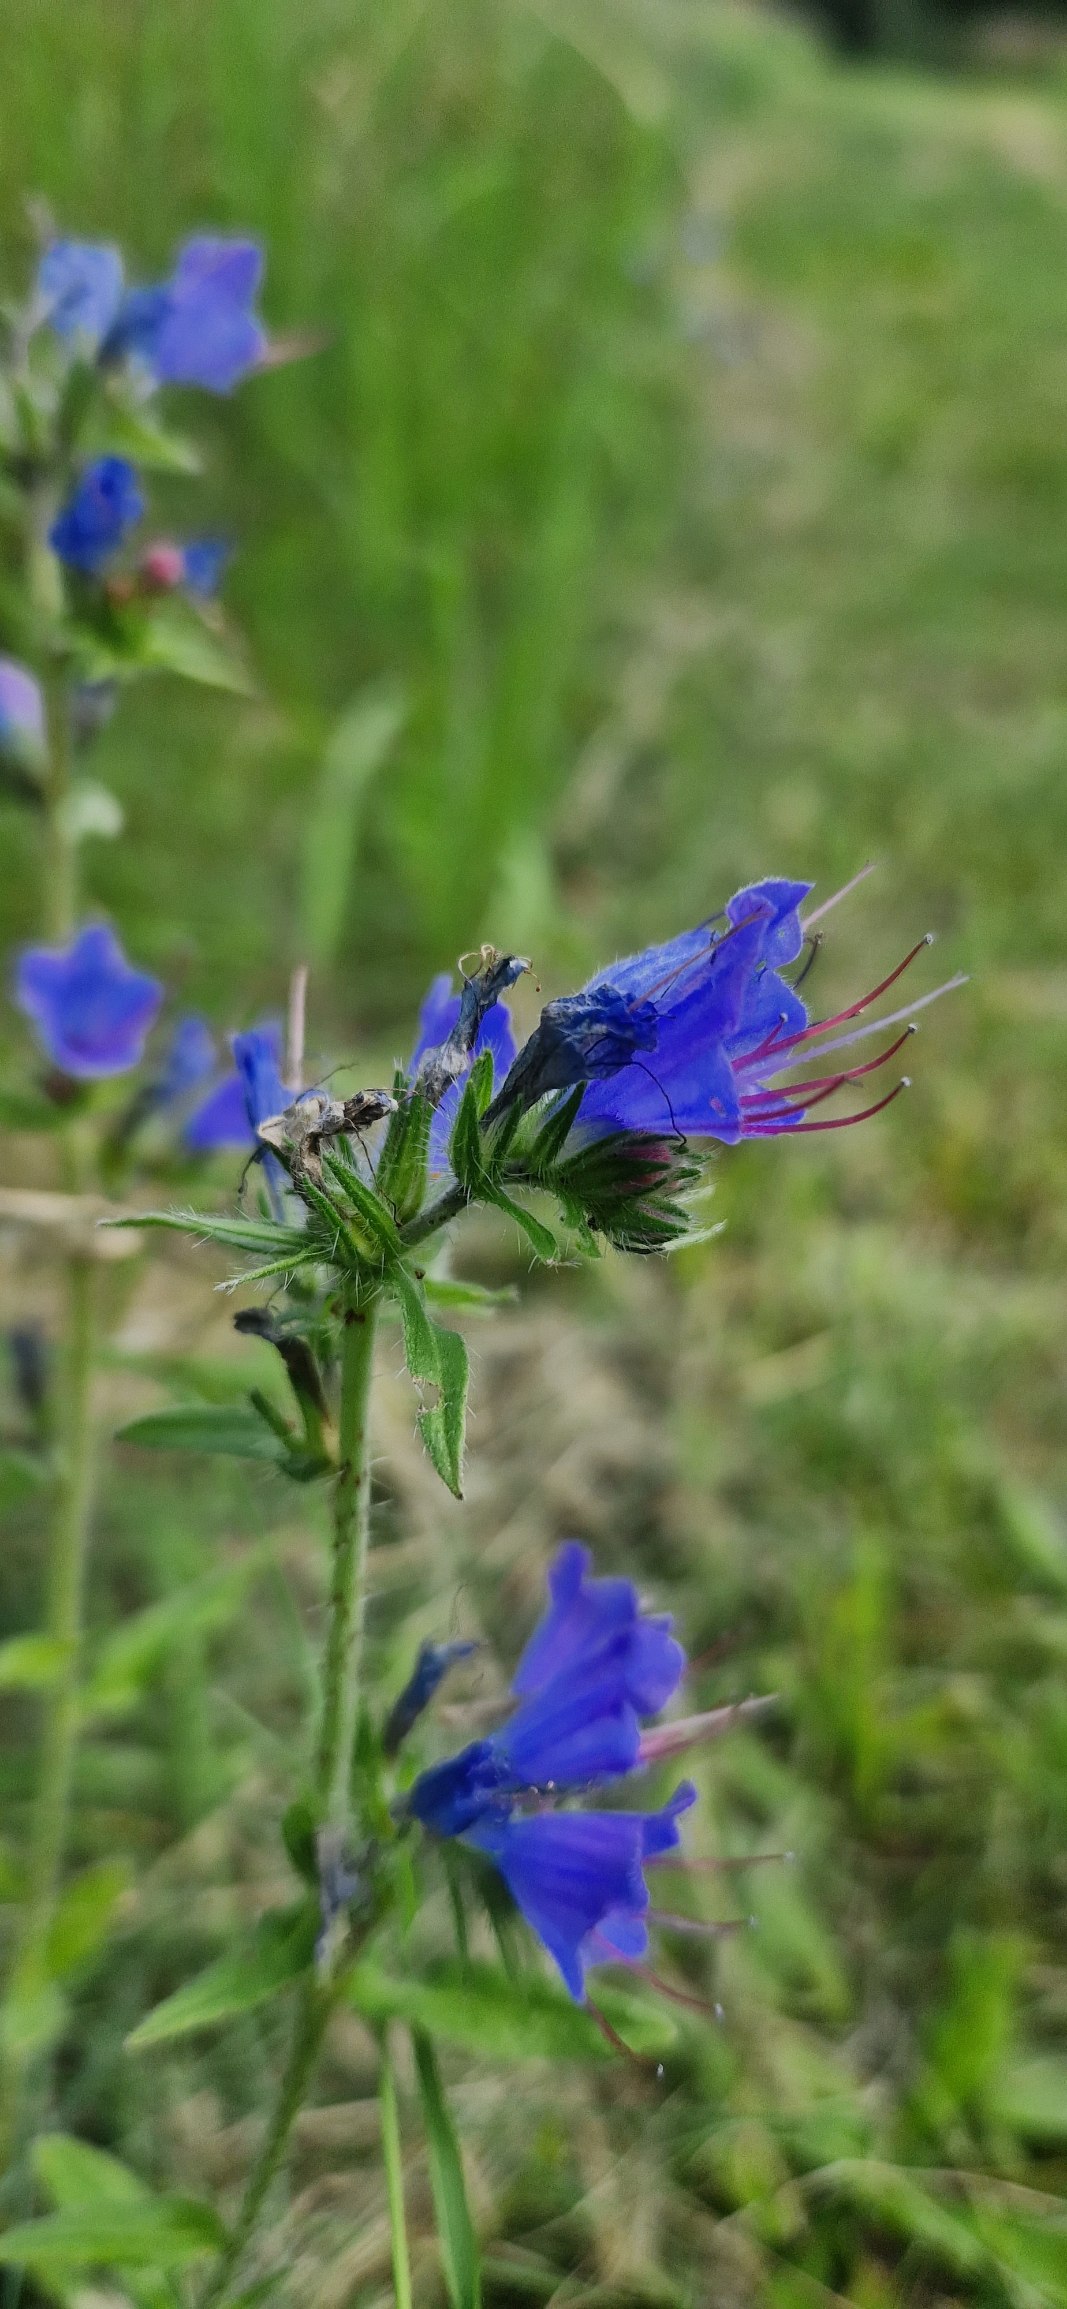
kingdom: Plantae
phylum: Tracheophyta
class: Magnoliopsida
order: Boraginales
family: Boraginaceae
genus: Echium
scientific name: Echium vulgare
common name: Slangehoved
